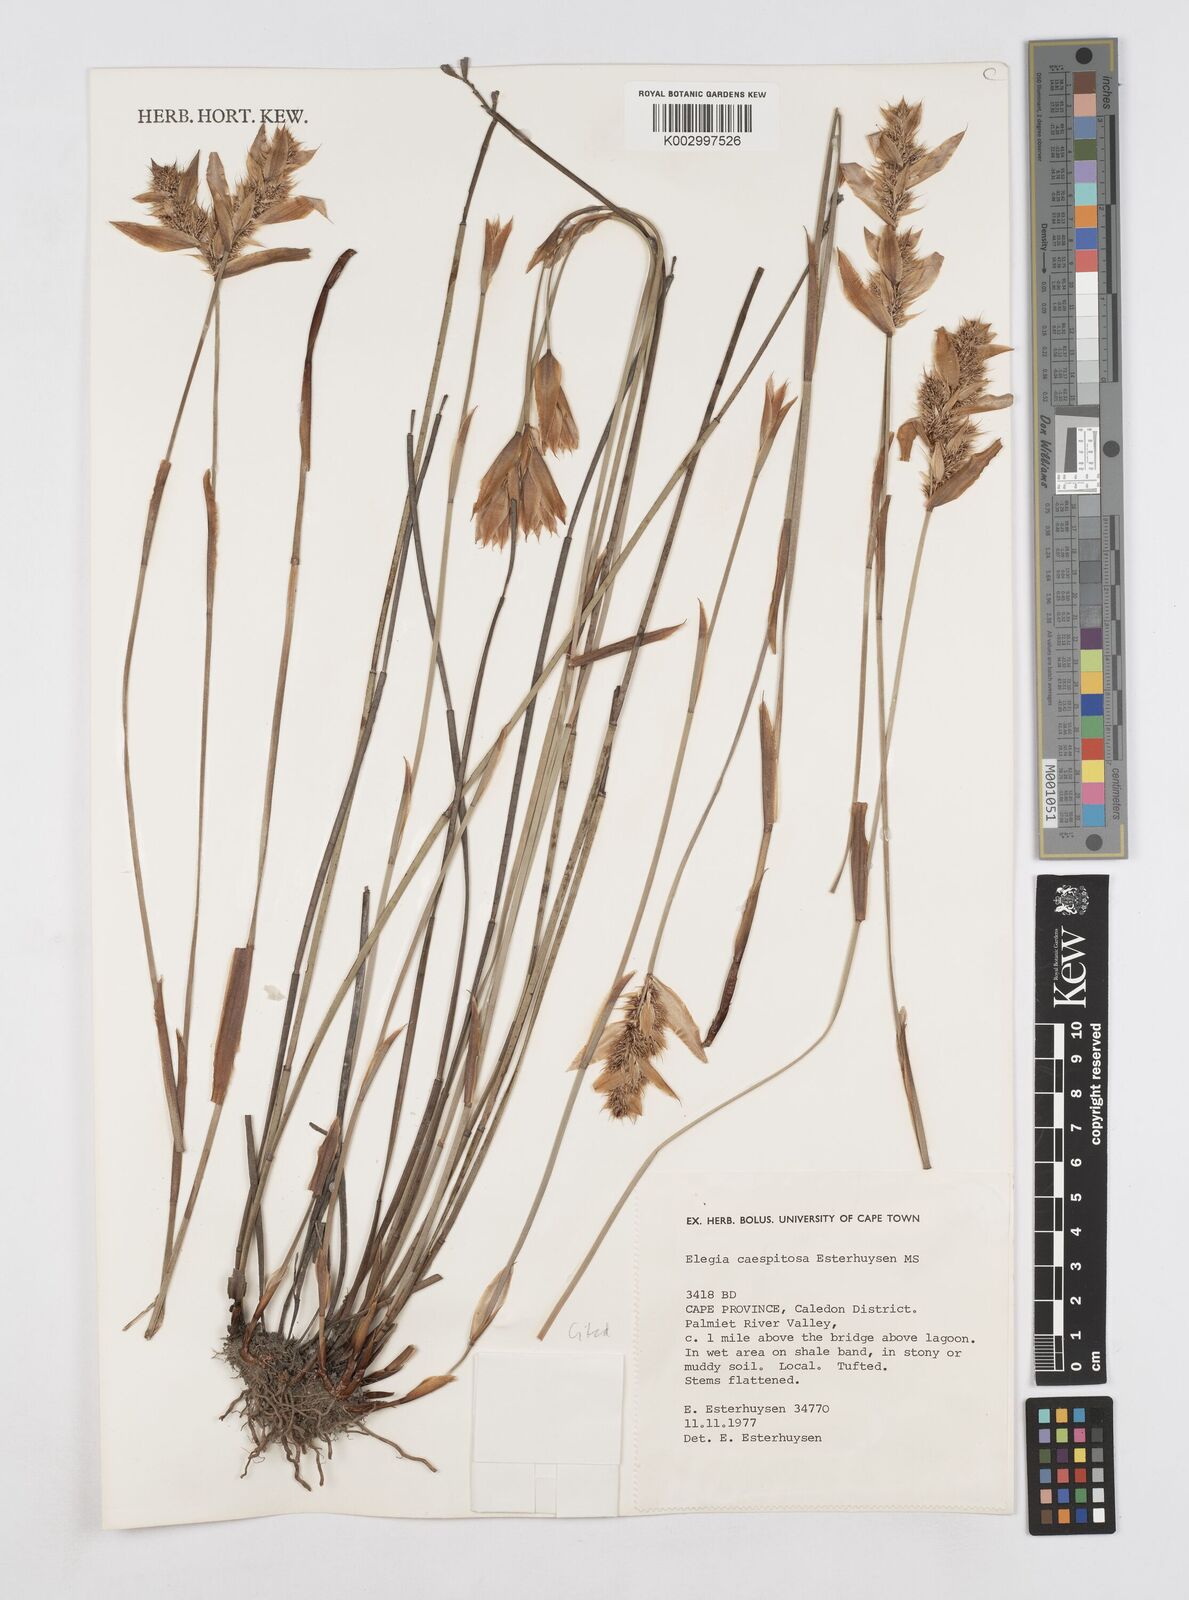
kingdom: Plantae
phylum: Tracheophyta
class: Liliopsida
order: Poales
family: Restionaceae
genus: Elegia
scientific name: Elegia caespitosa
